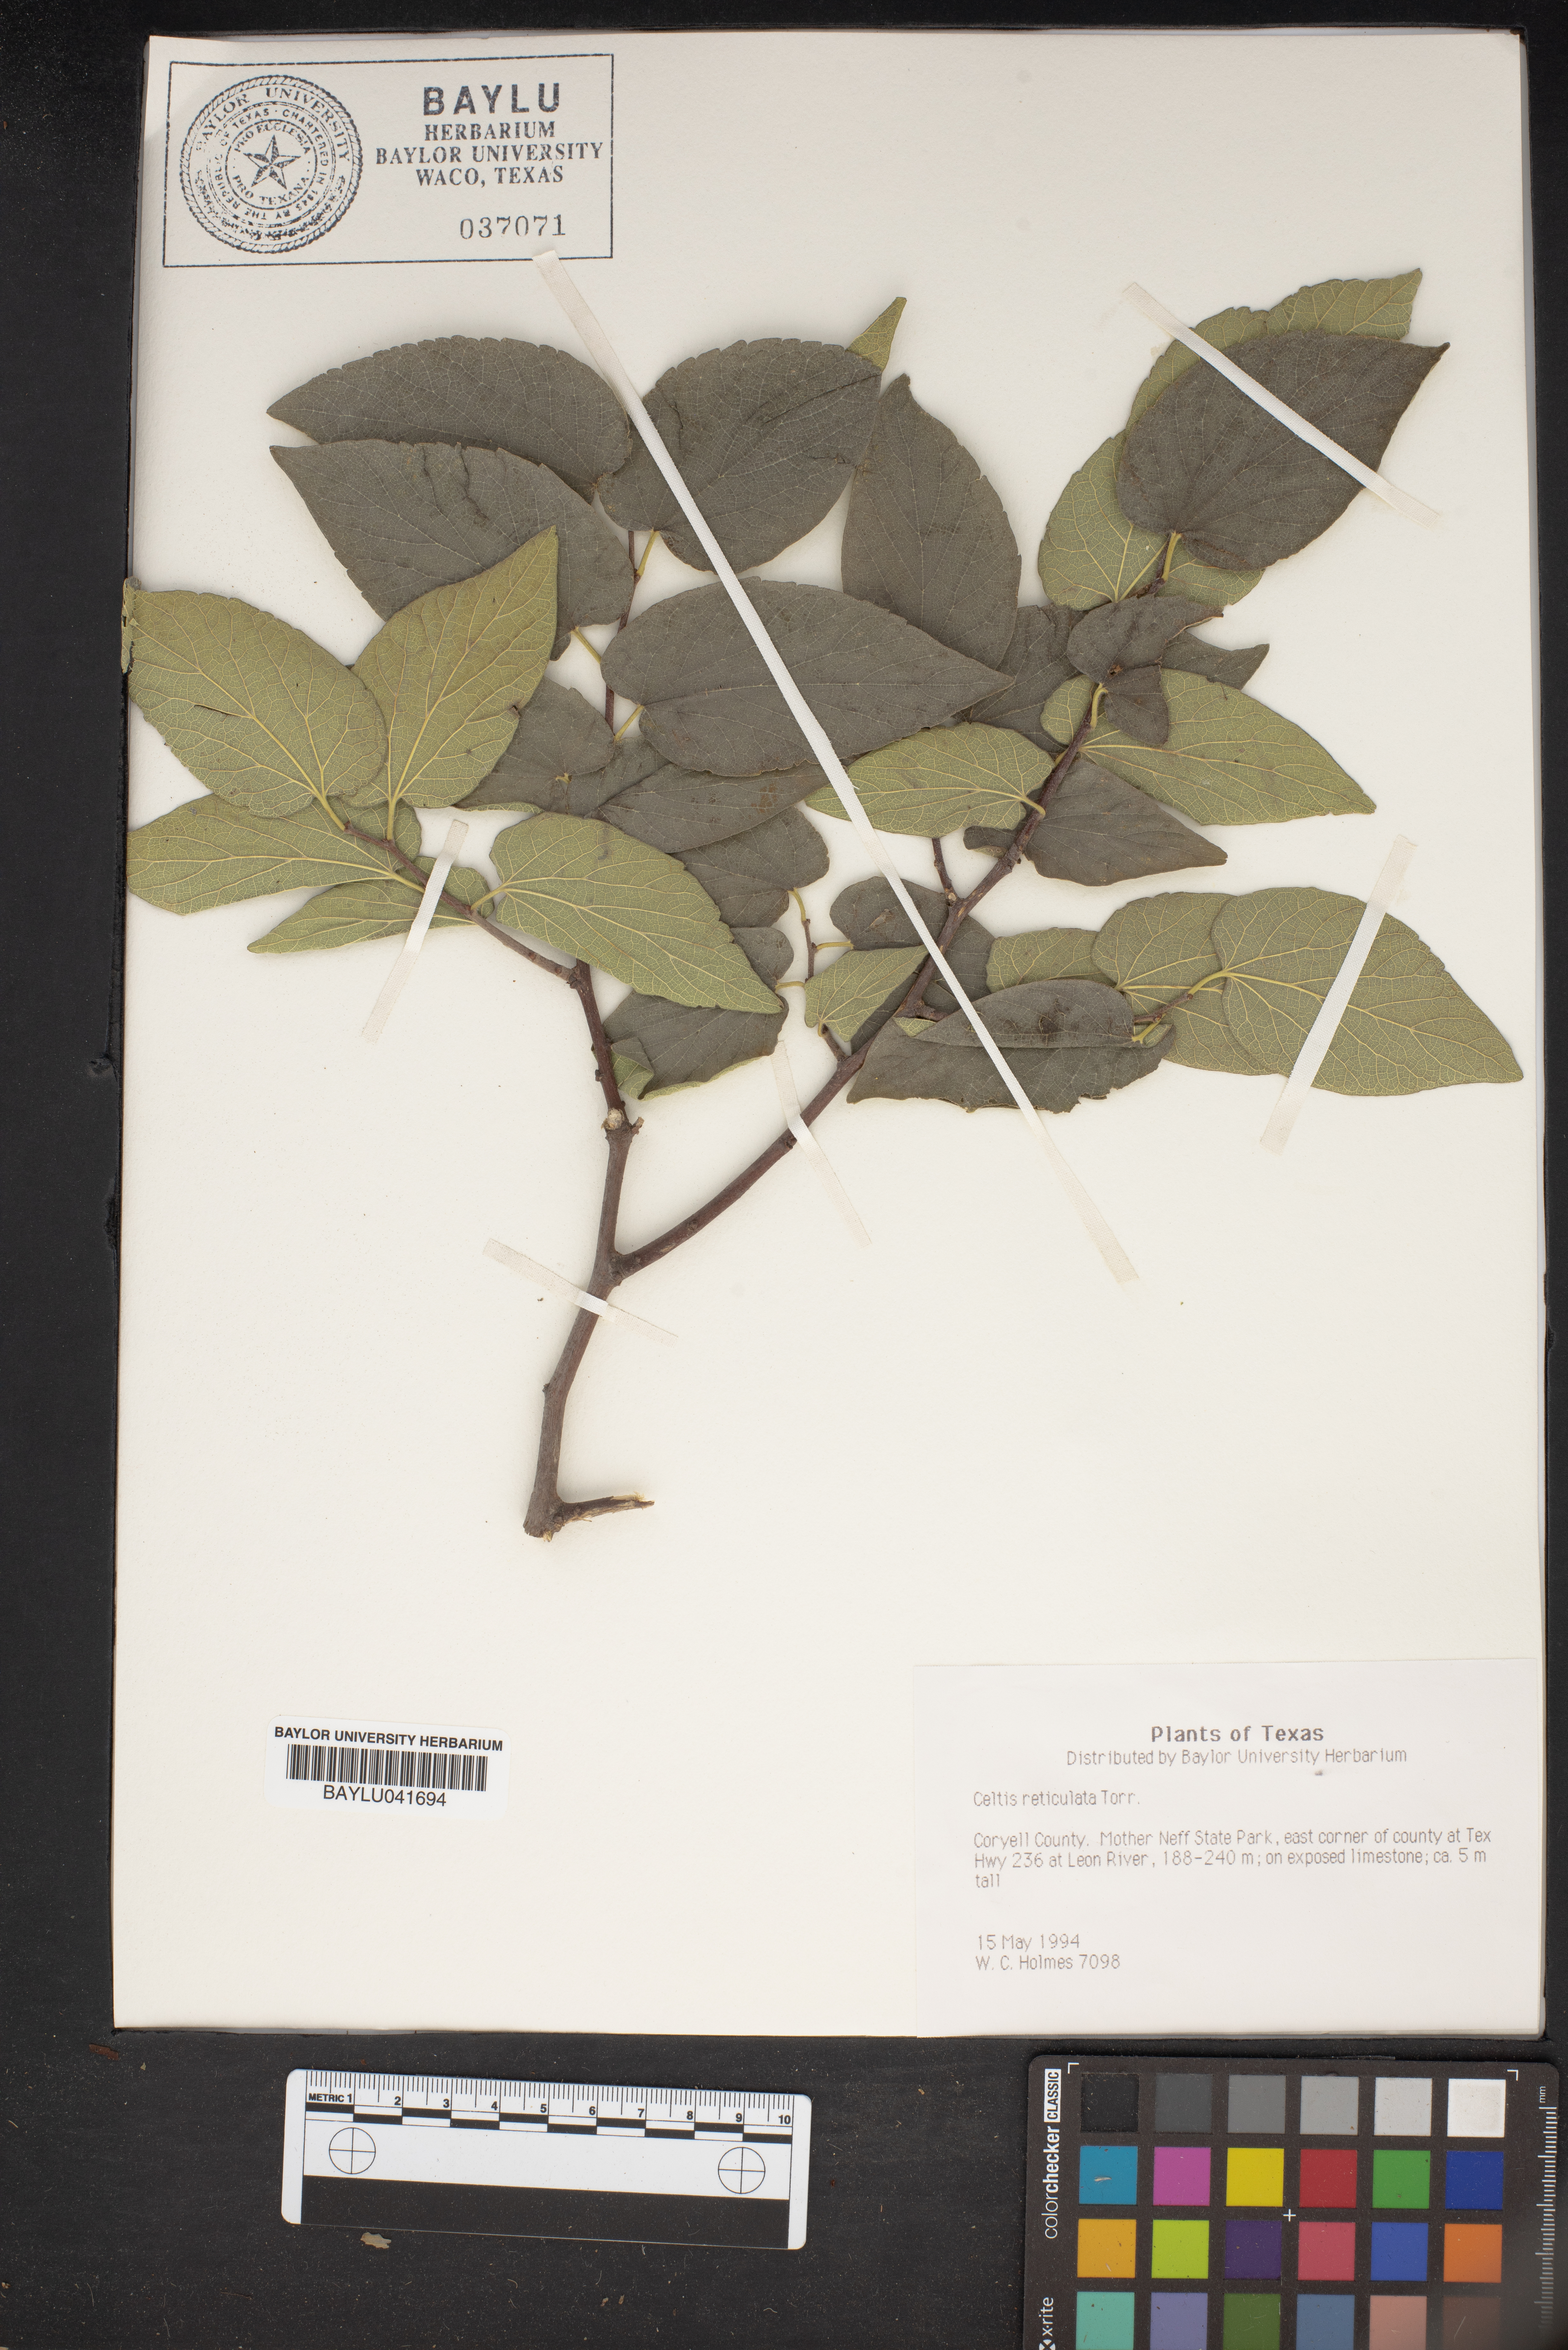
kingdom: Plantae
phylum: Tracheophyta
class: Magnoliopsida
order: Rosales
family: Cannabaceae
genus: Celtis
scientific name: Celtis reticulata
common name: Netleaf hackberry
